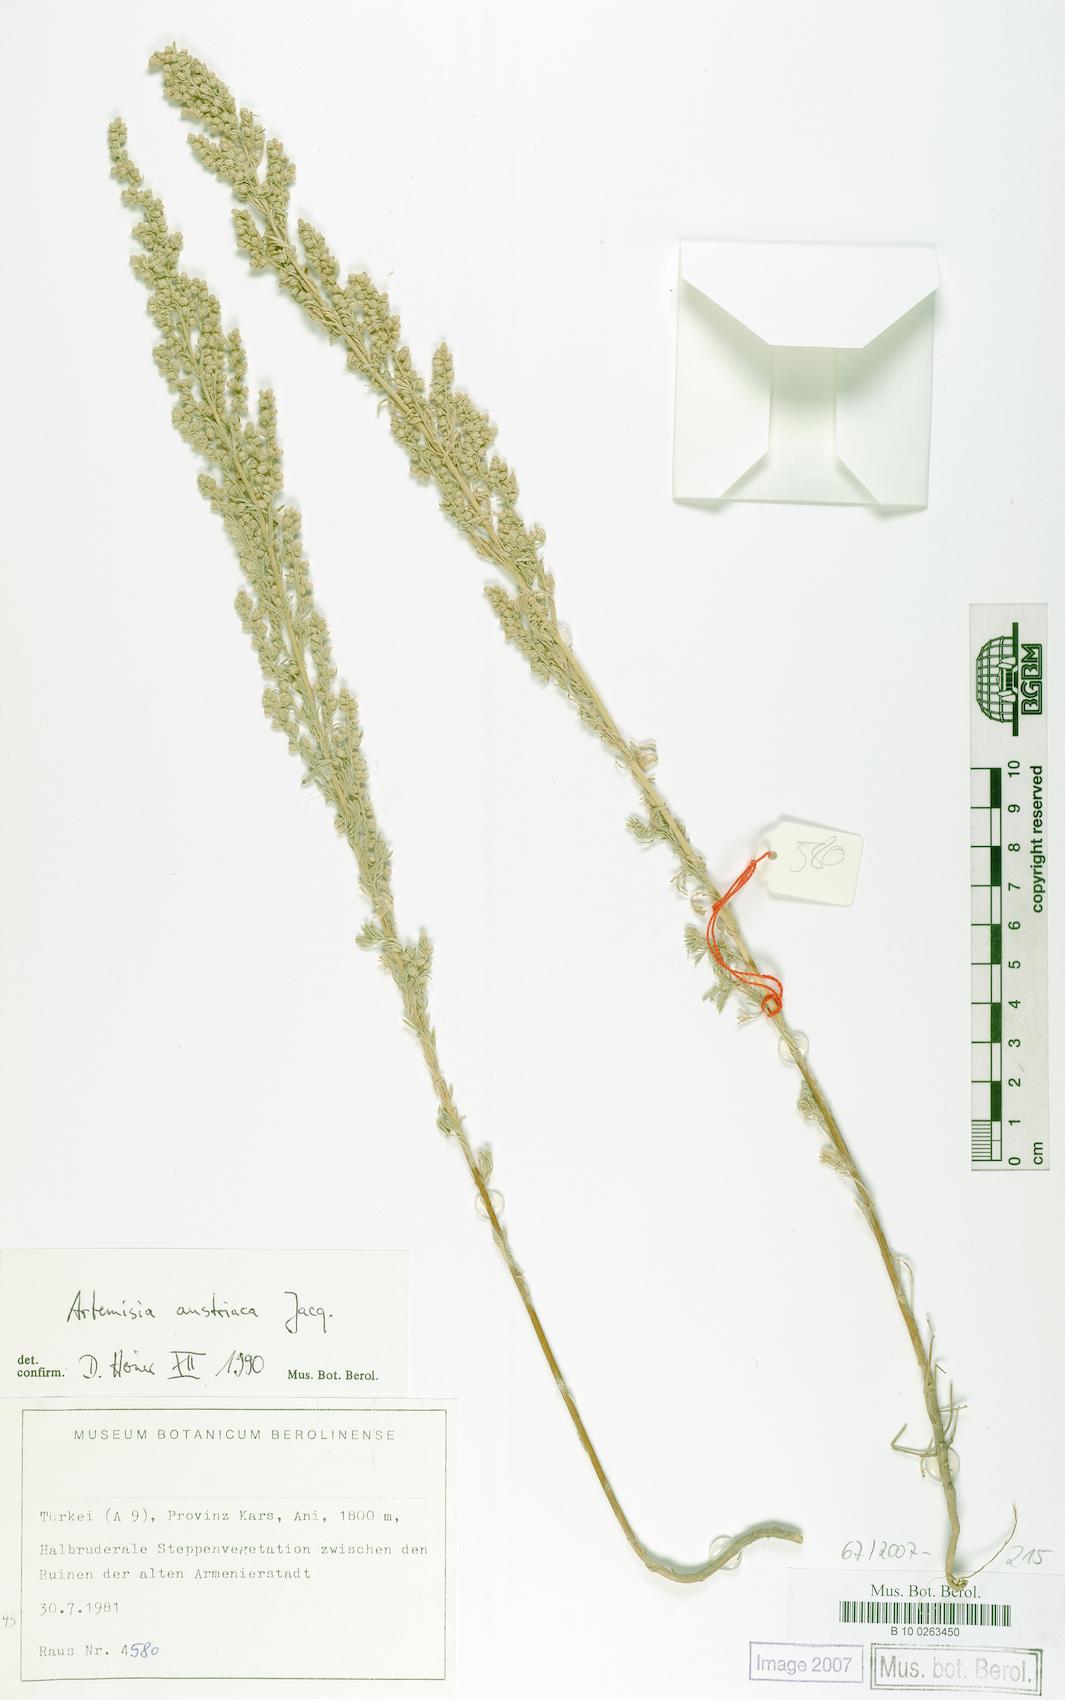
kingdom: Plantae
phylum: Tracheophyta
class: Magnoliopsida
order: Asterales
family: Asteraceae
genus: Artemisia
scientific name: Artemisia austriaca
